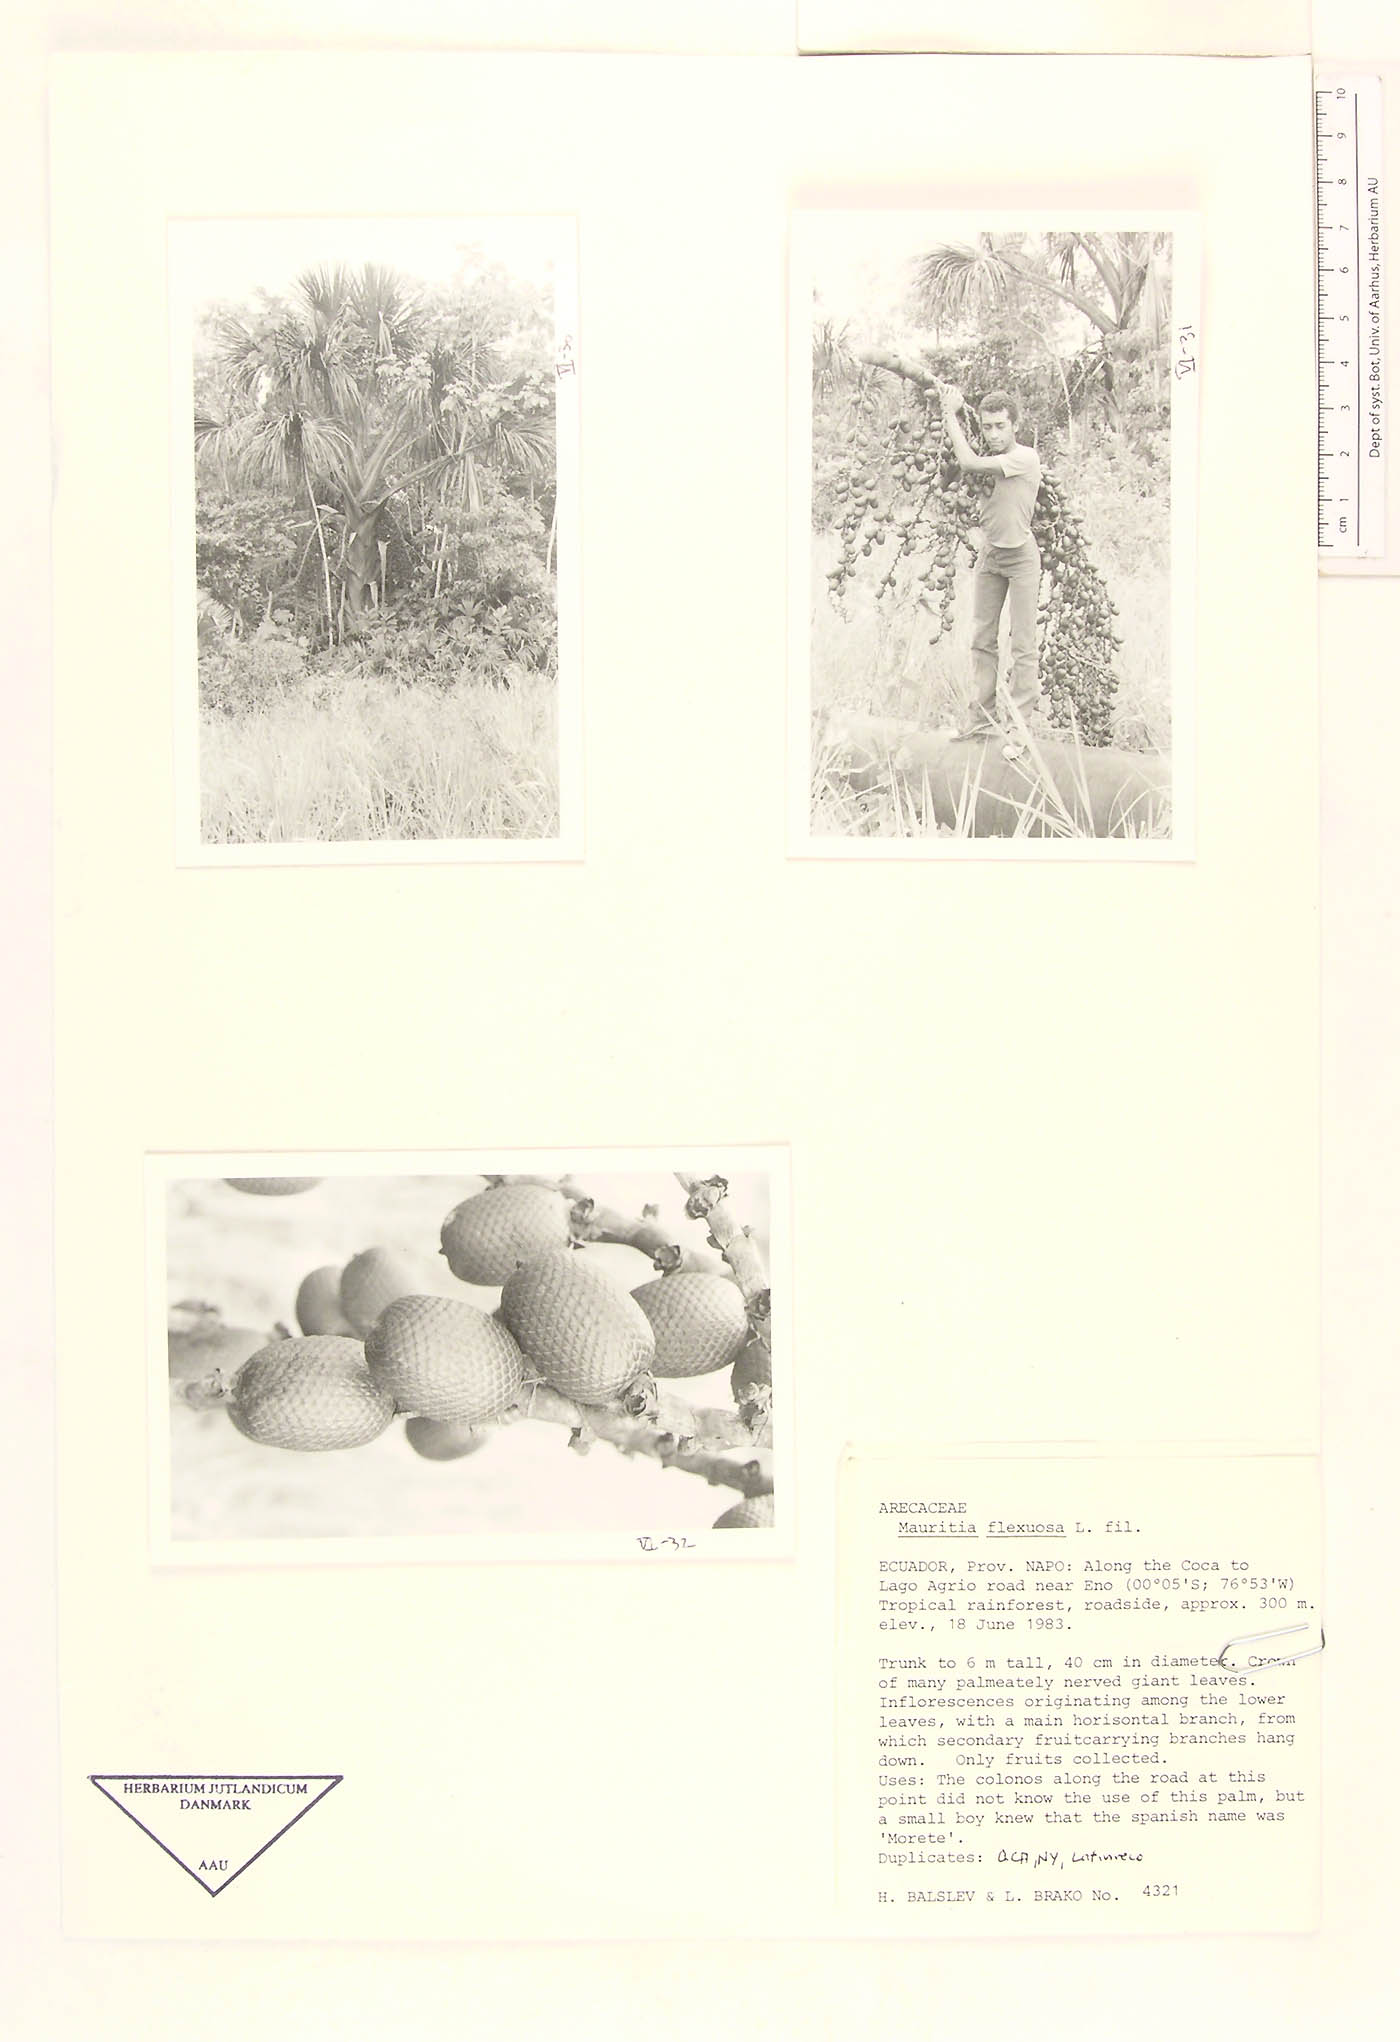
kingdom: Plantae
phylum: Tracheophyta
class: Liliopsida
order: Arecales
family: Arecaceae
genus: Mauritia
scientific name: Mauritia flexuosa
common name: Tree-of-life
